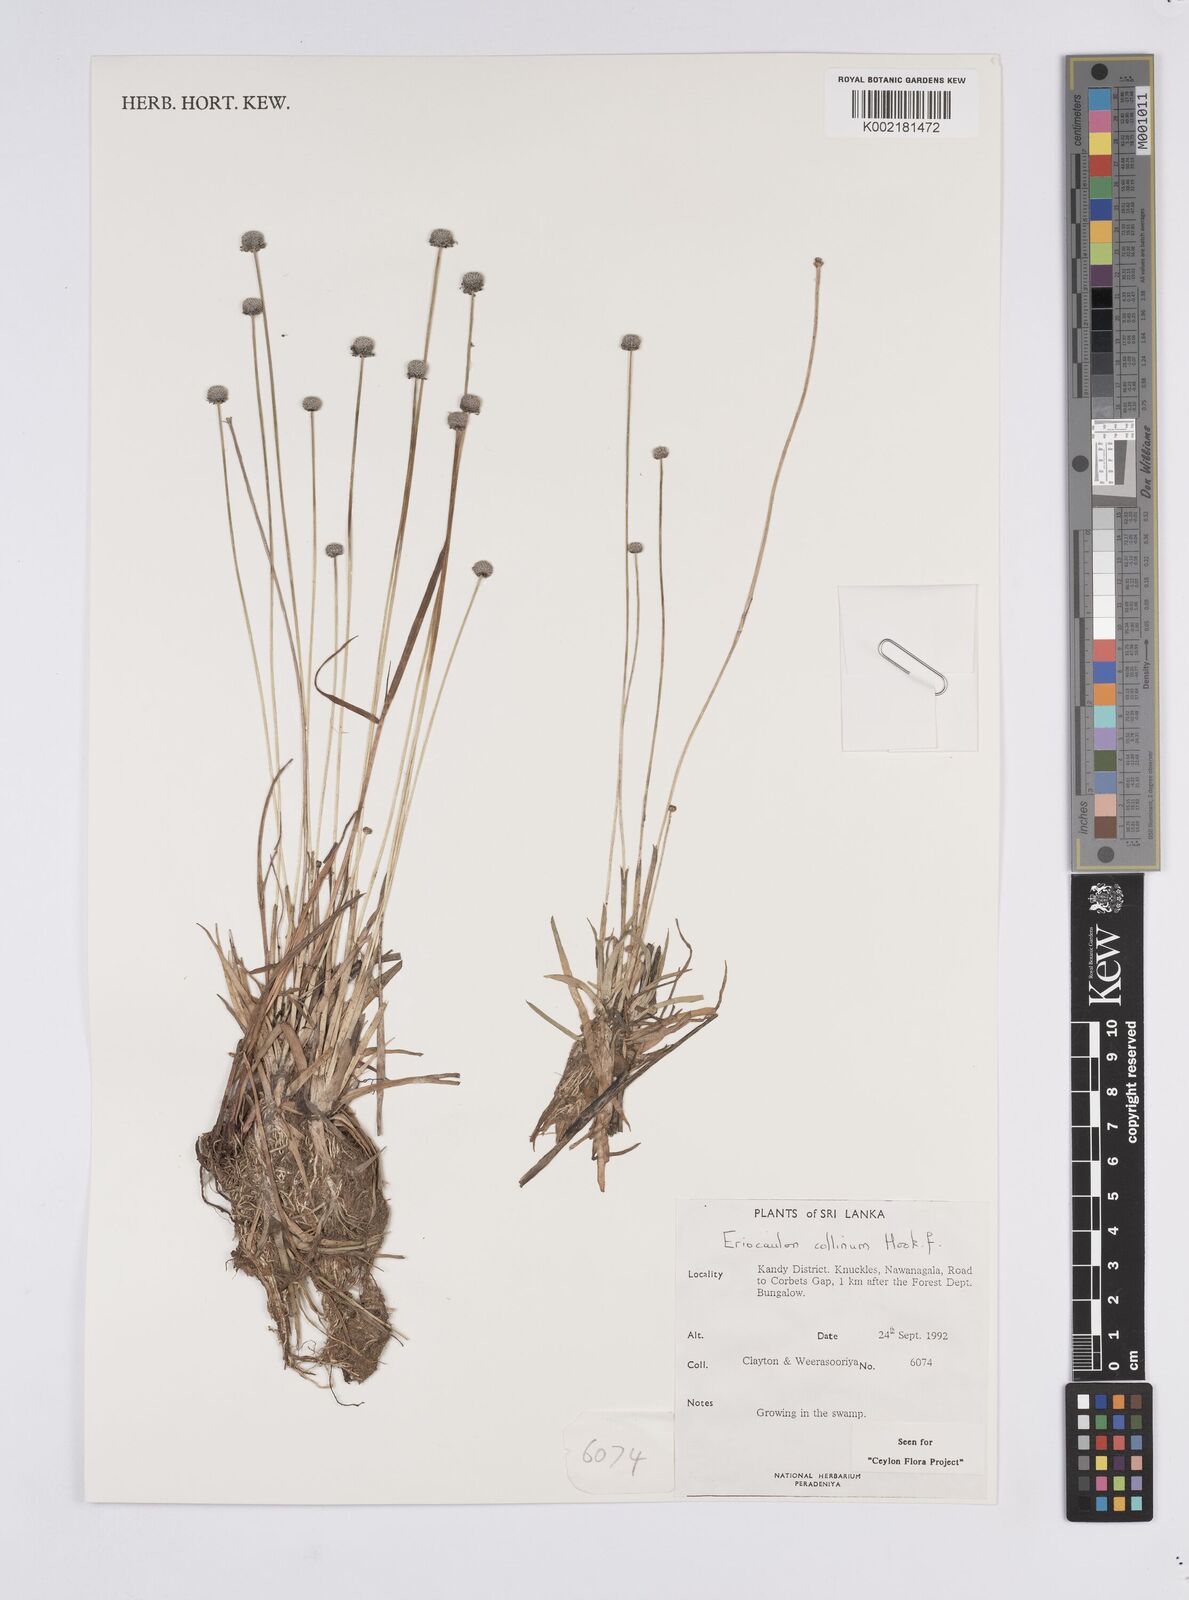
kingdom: Plantae
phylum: Tracheophyta
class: Liliopsida
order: Poales
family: Eriocaulaceae
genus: Eriocaulon
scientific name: Eriocaulon odoratum
